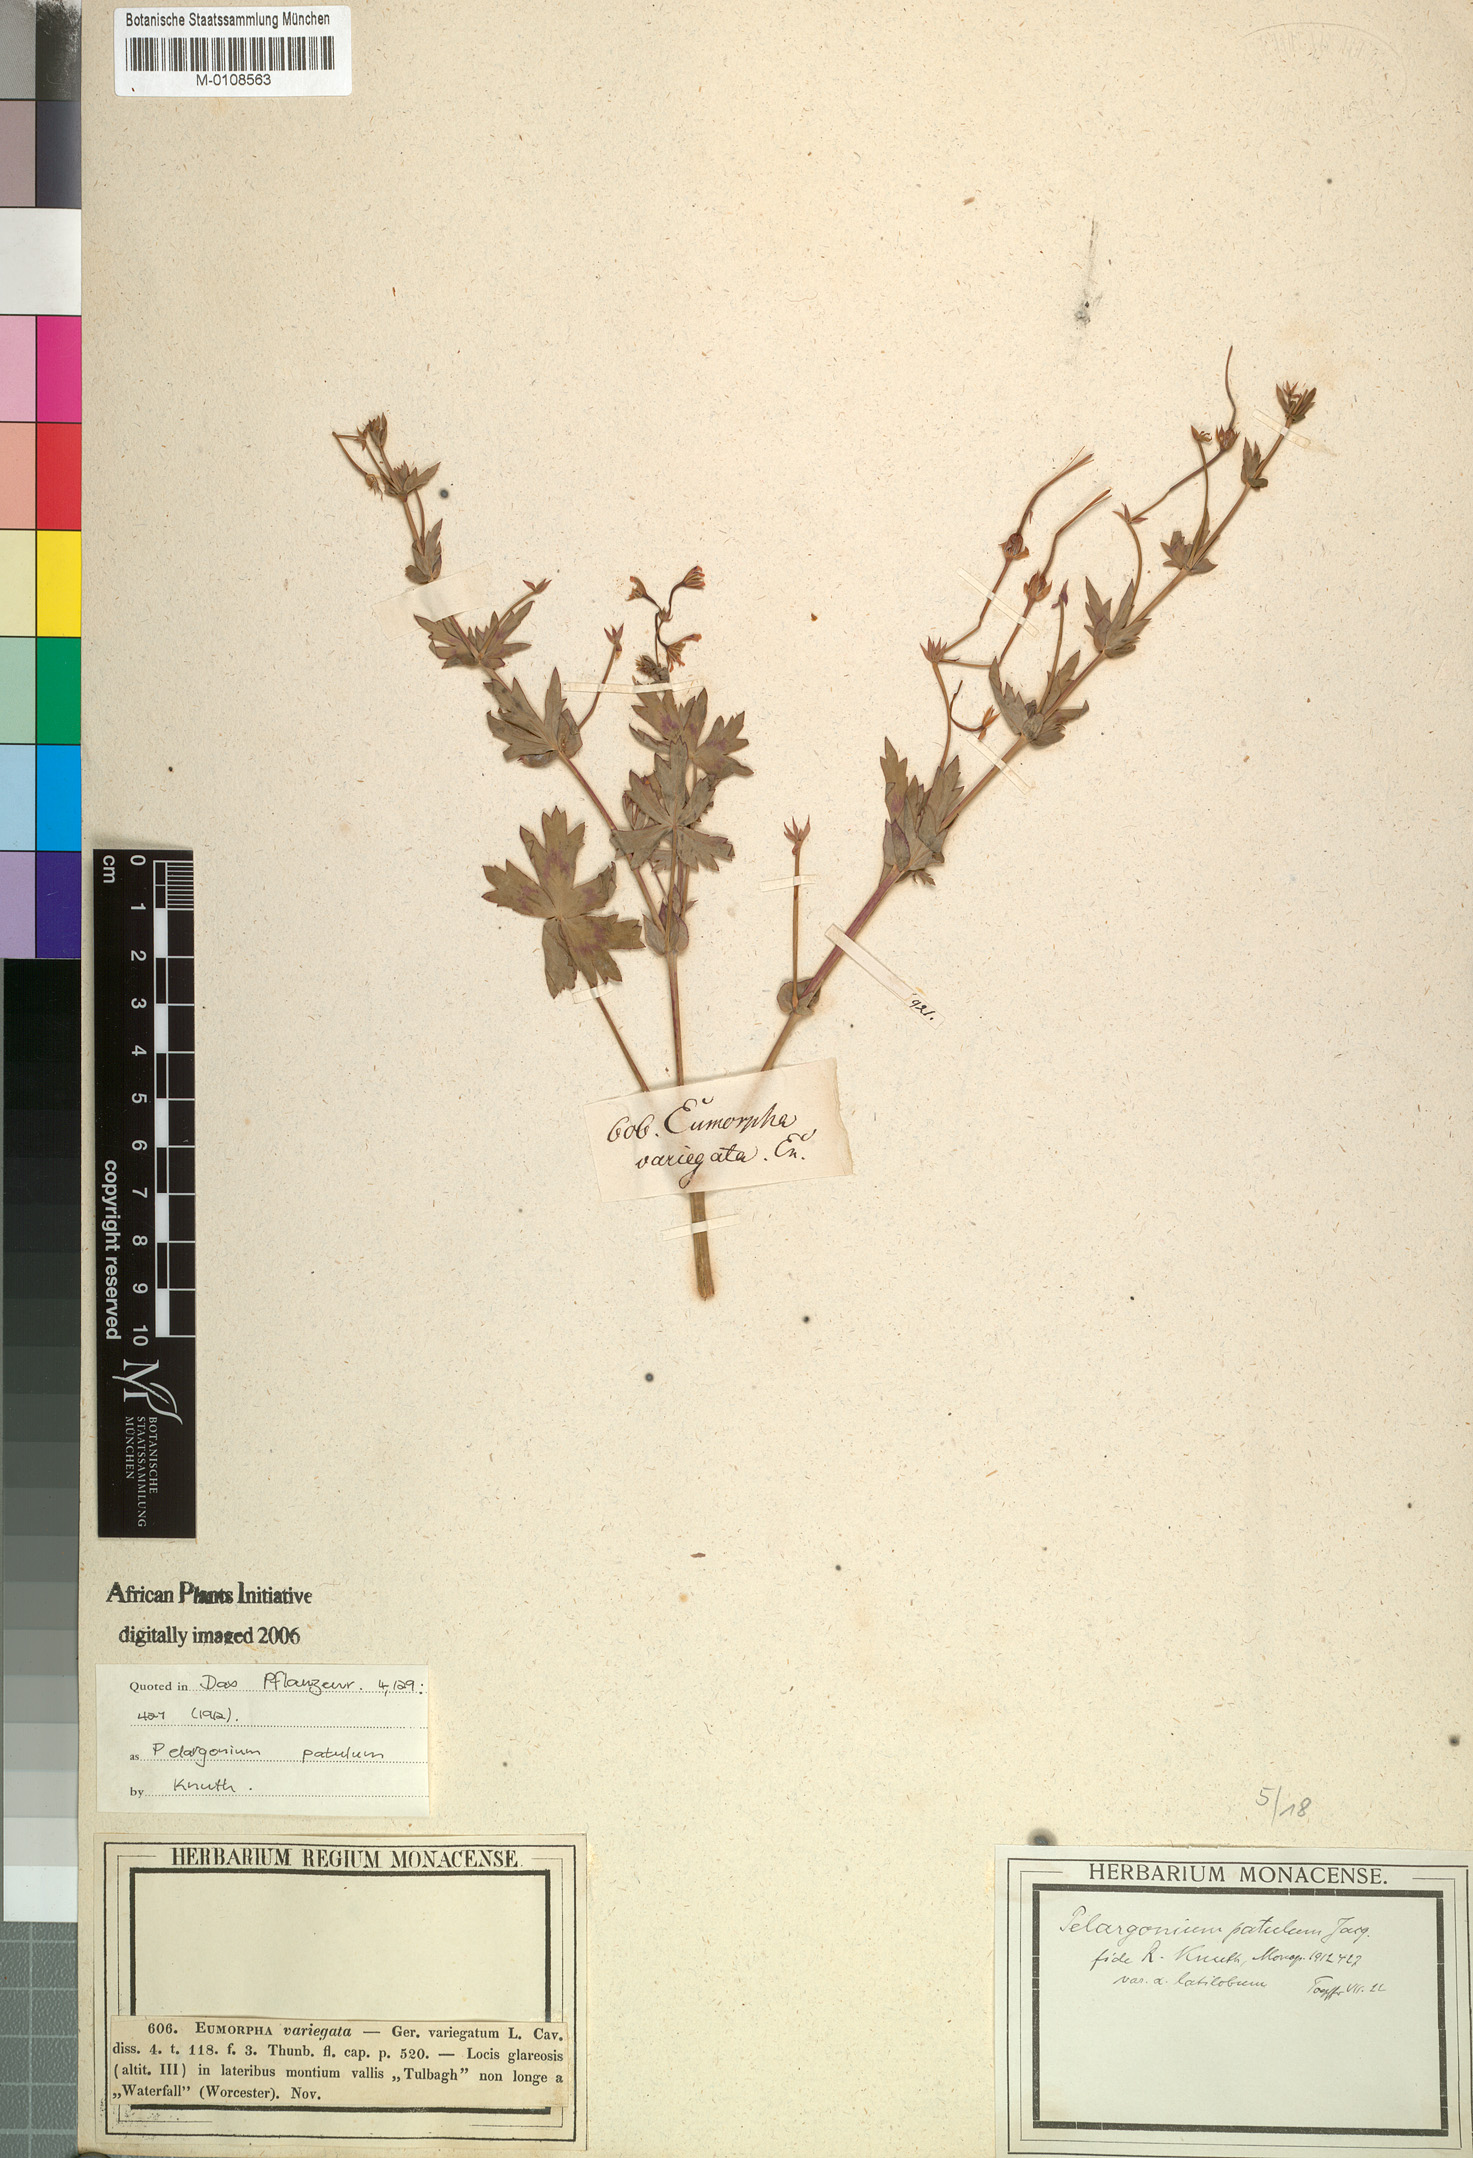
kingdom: Plantae
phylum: Tracheophyta
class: Magnoliopsida
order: Geraniales
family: Geraniaceae
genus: Pelargonium
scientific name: Pelargonium patulum
